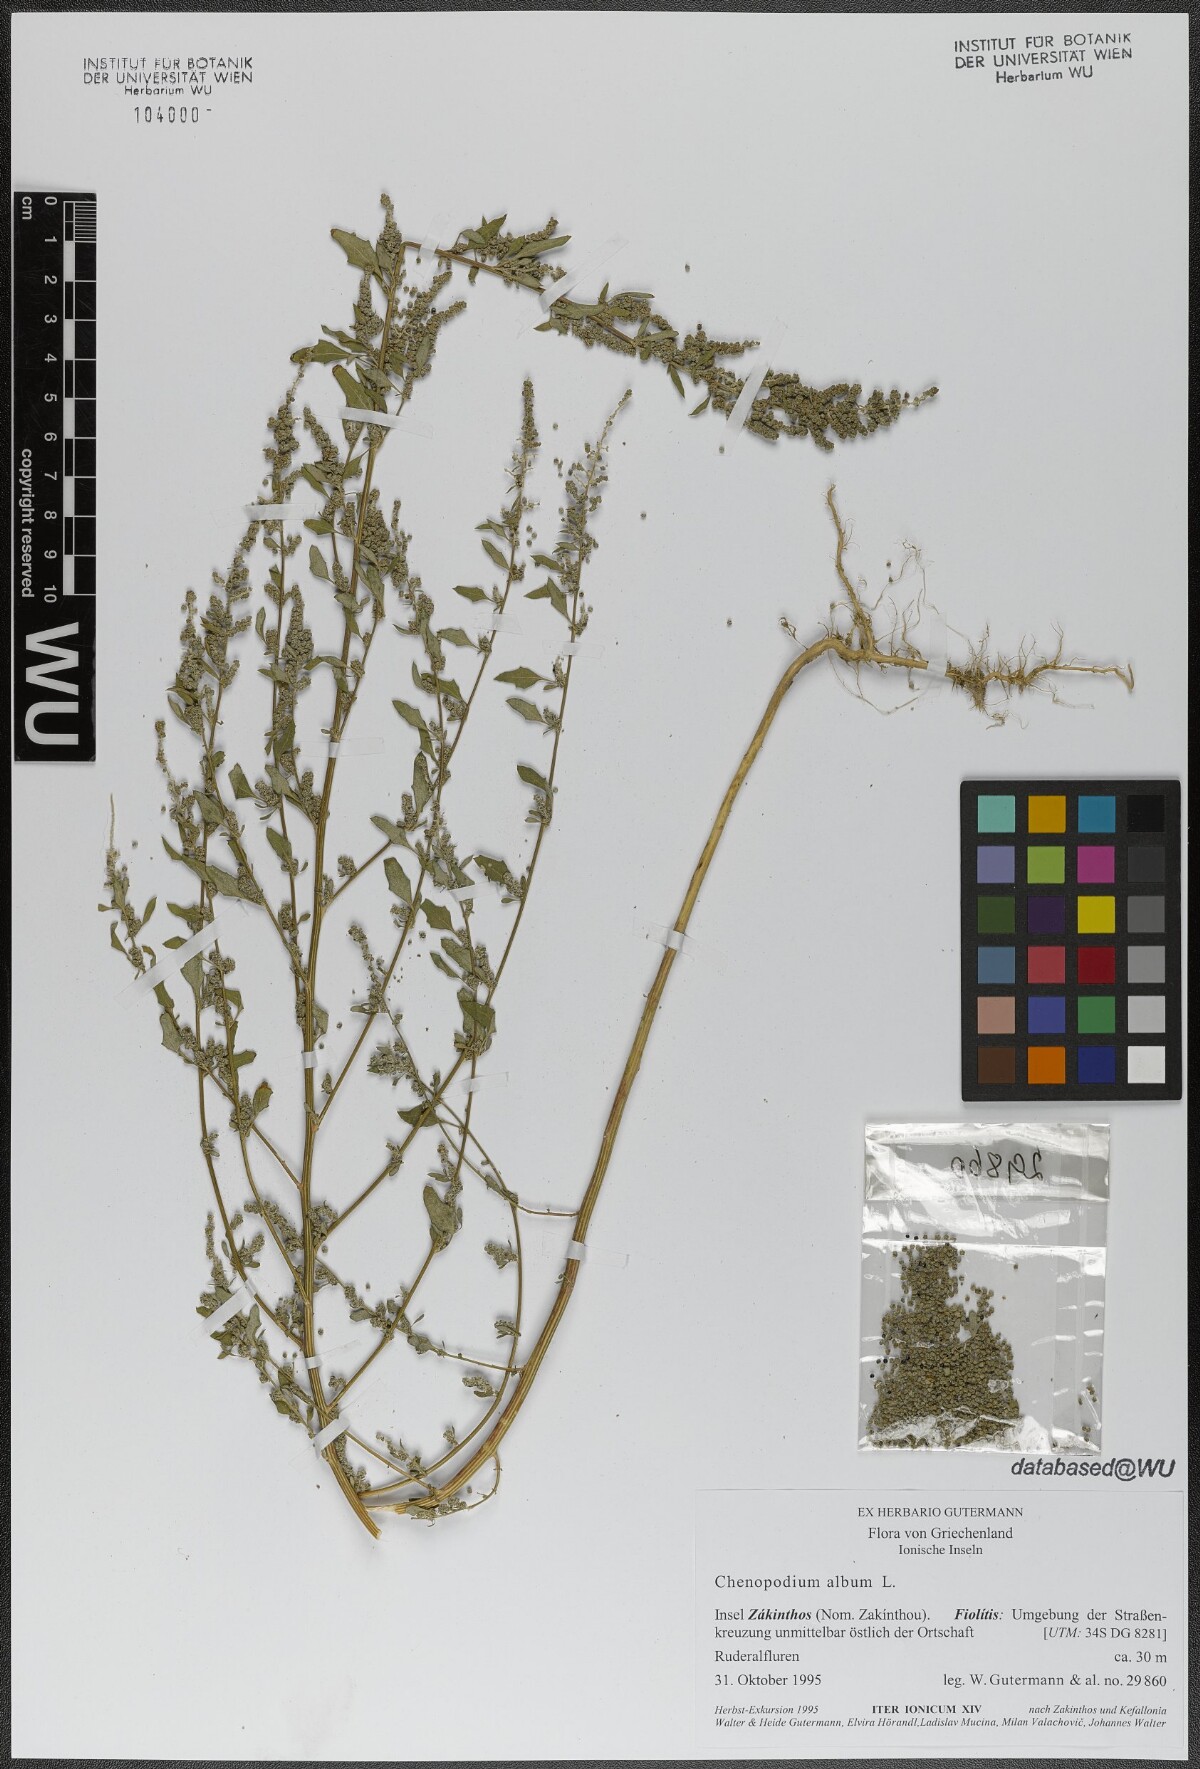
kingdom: Plantae
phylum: Tracheophyta
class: Magnoliopsida
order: Caryophyllales
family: Amaranthaceae
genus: Chenopodium
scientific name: Chenopodium album
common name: Fat-hen
